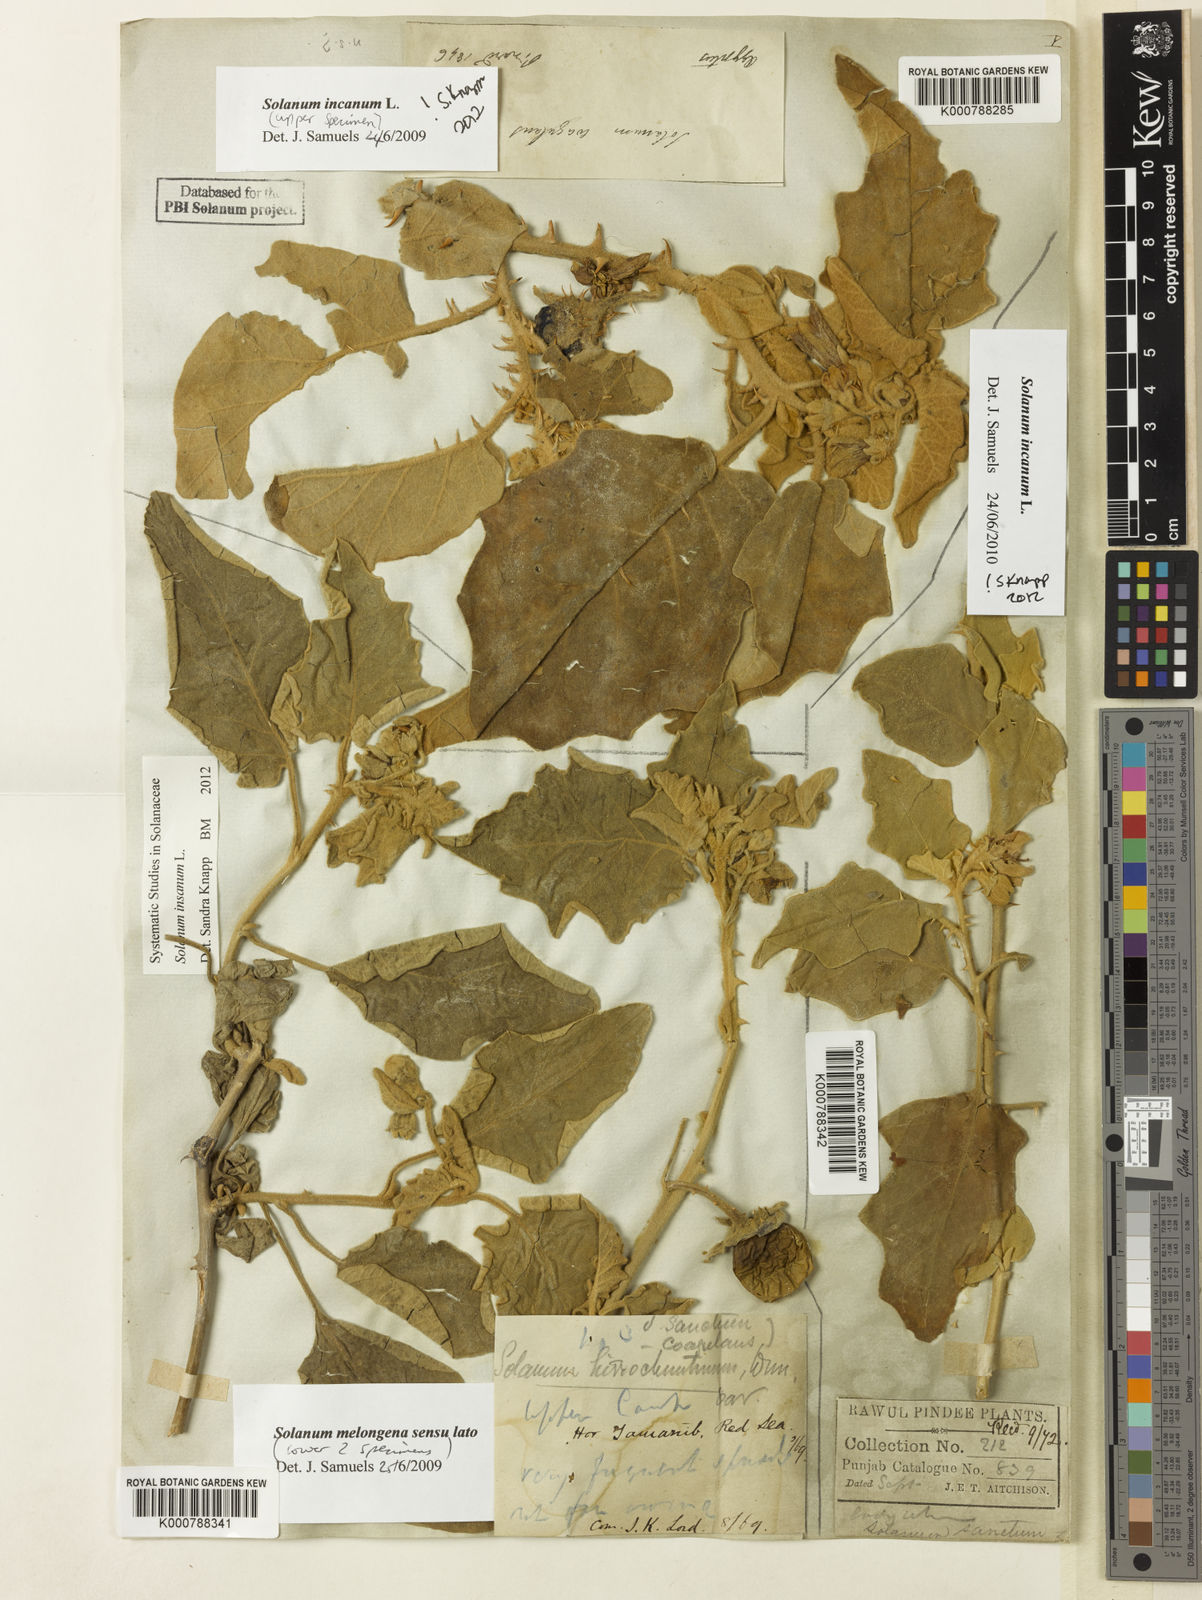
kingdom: Plantae
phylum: Tracheophyta
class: Magnoliopsida
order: Solanales
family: Solanaceae
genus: Solanum
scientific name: Solanum incanum
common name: Bitter apple
